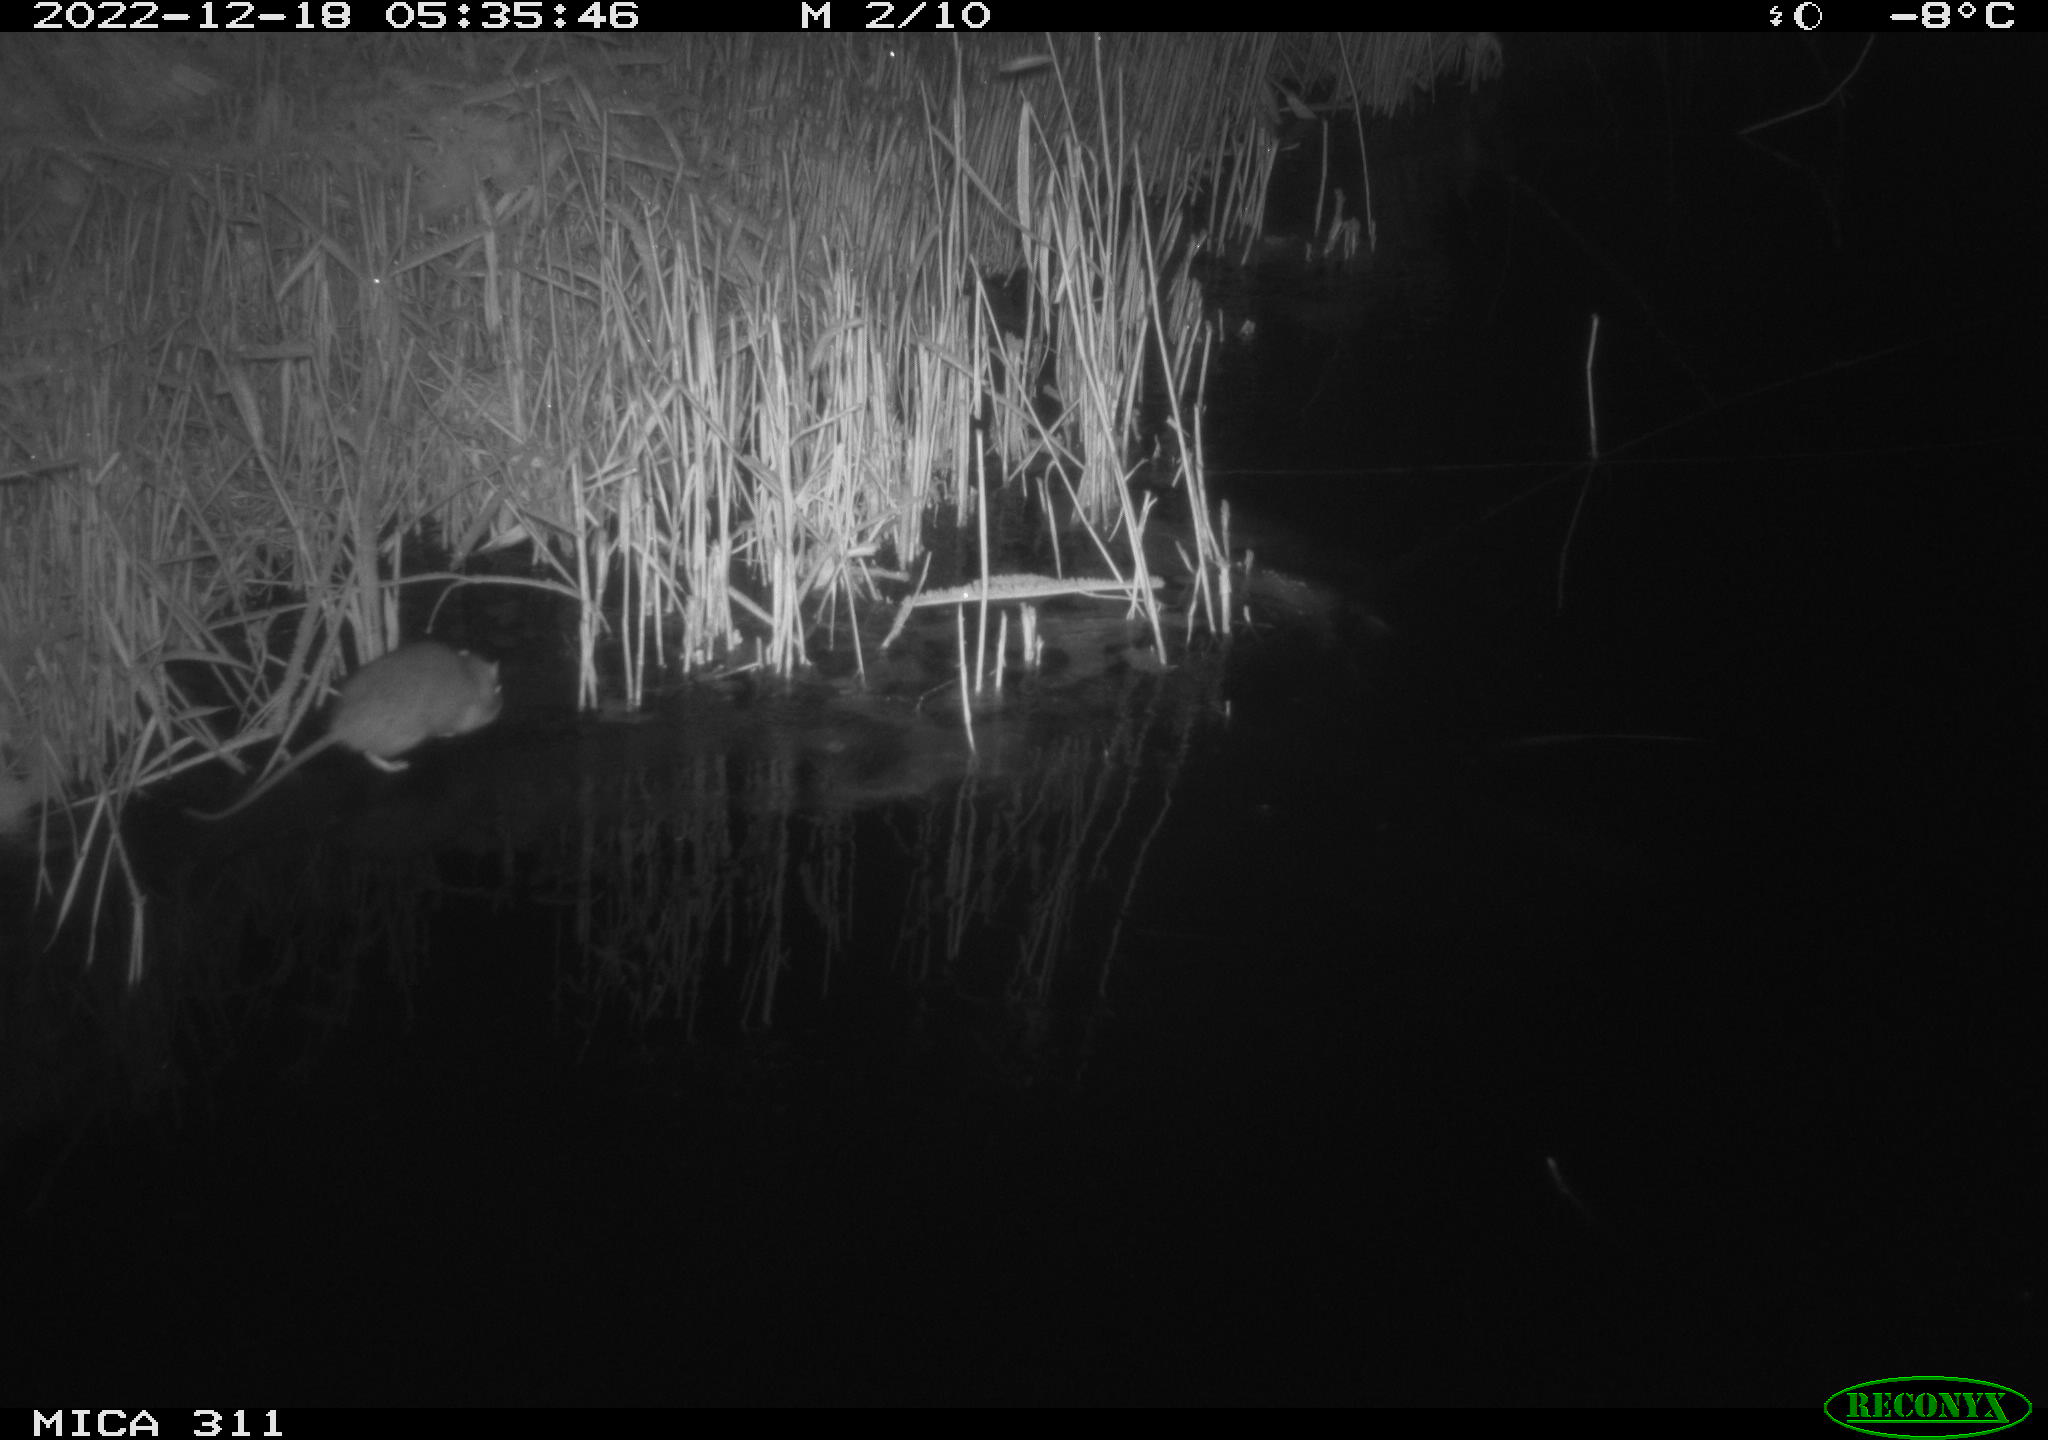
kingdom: Animalia
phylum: Chordata
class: Mammalia
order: Rodentia
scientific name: Rodentia
